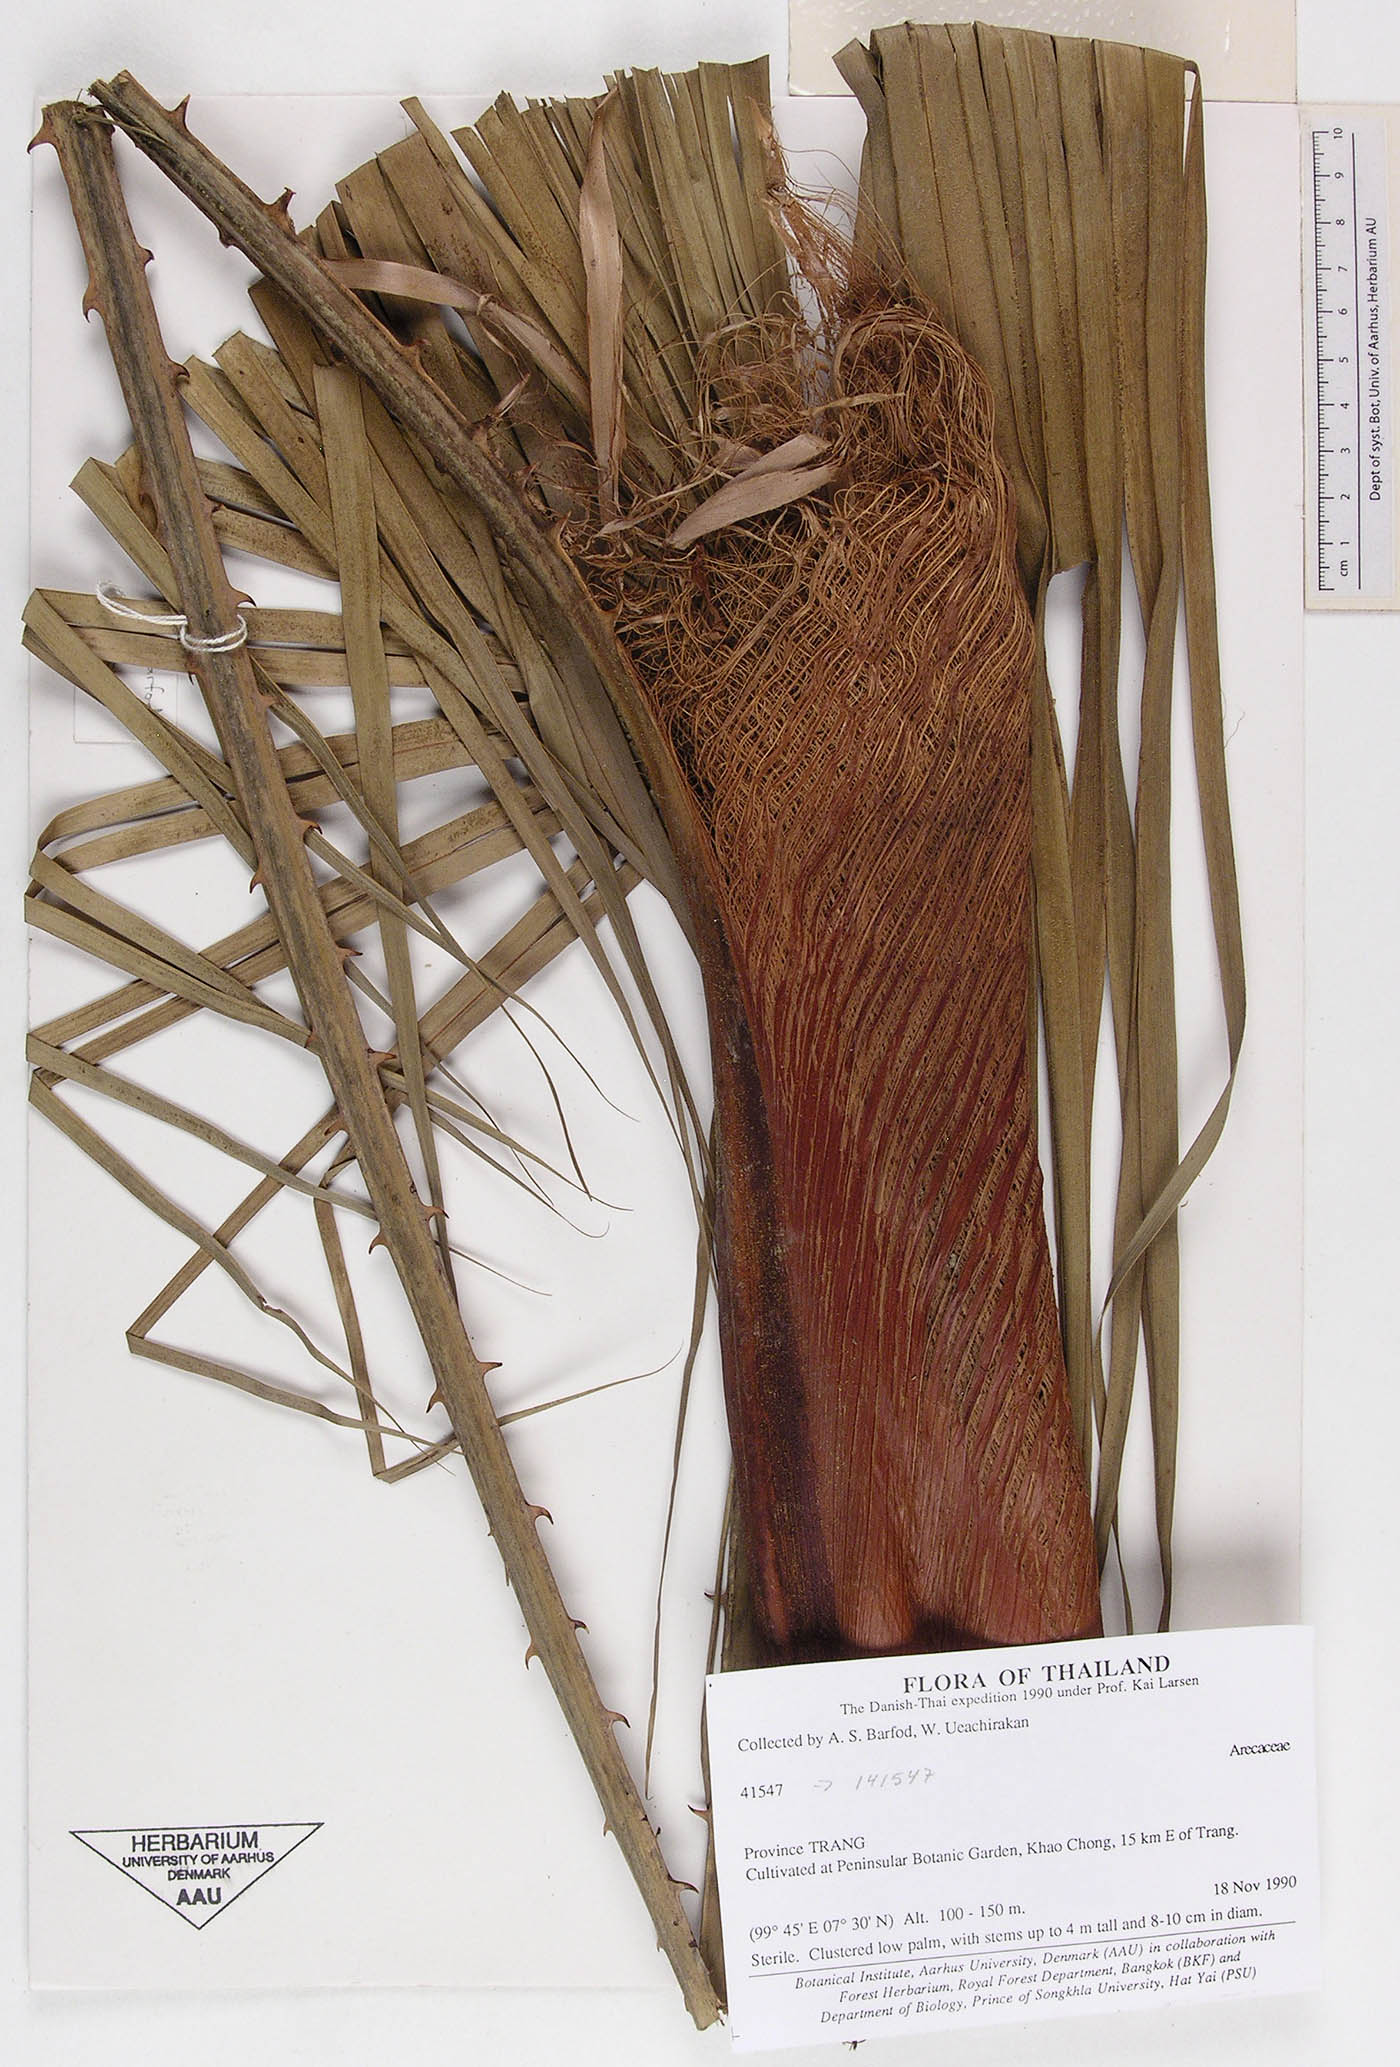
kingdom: Plantae
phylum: Tracheophyta
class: Liliopsida
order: Arecales
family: Arecaceae
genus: Acoelorraphe
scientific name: Acoelorraphe wrightii
